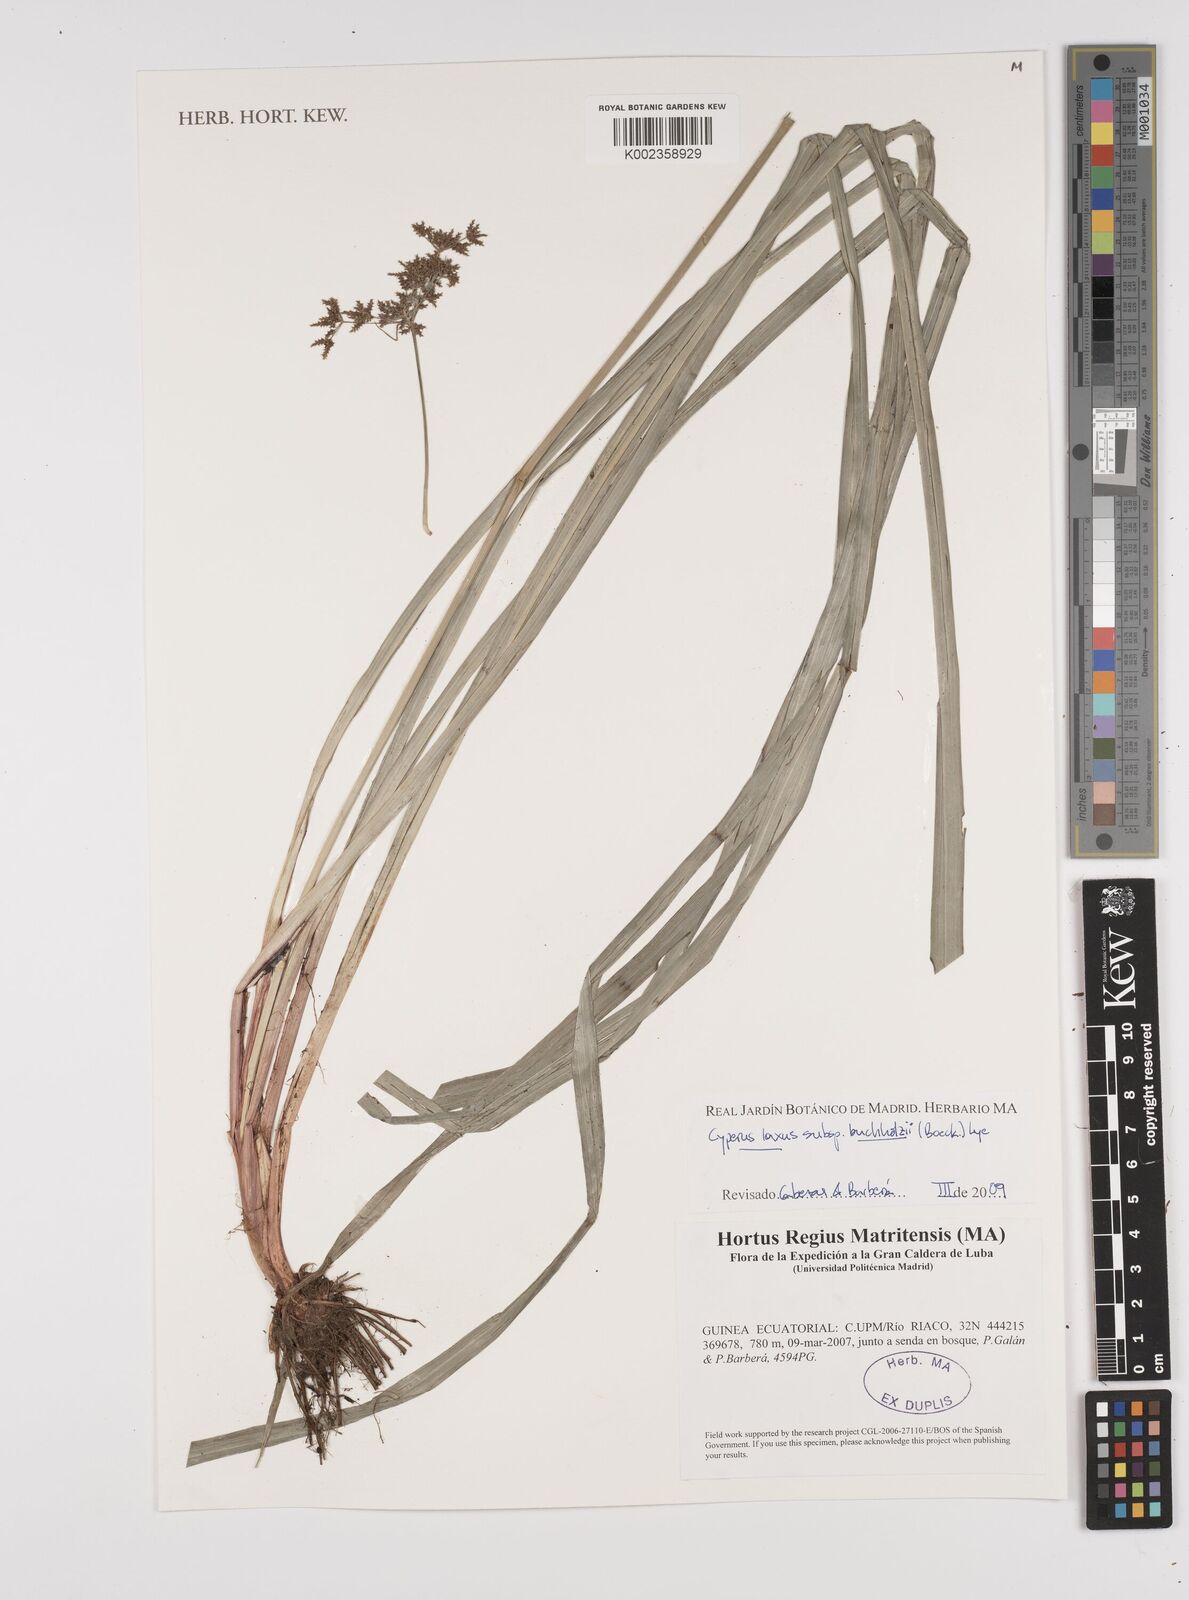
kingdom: Plantae
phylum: Tracheophyta
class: Liliopsida
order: Poales
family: Cyperaceae
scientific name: Cyperaceae
